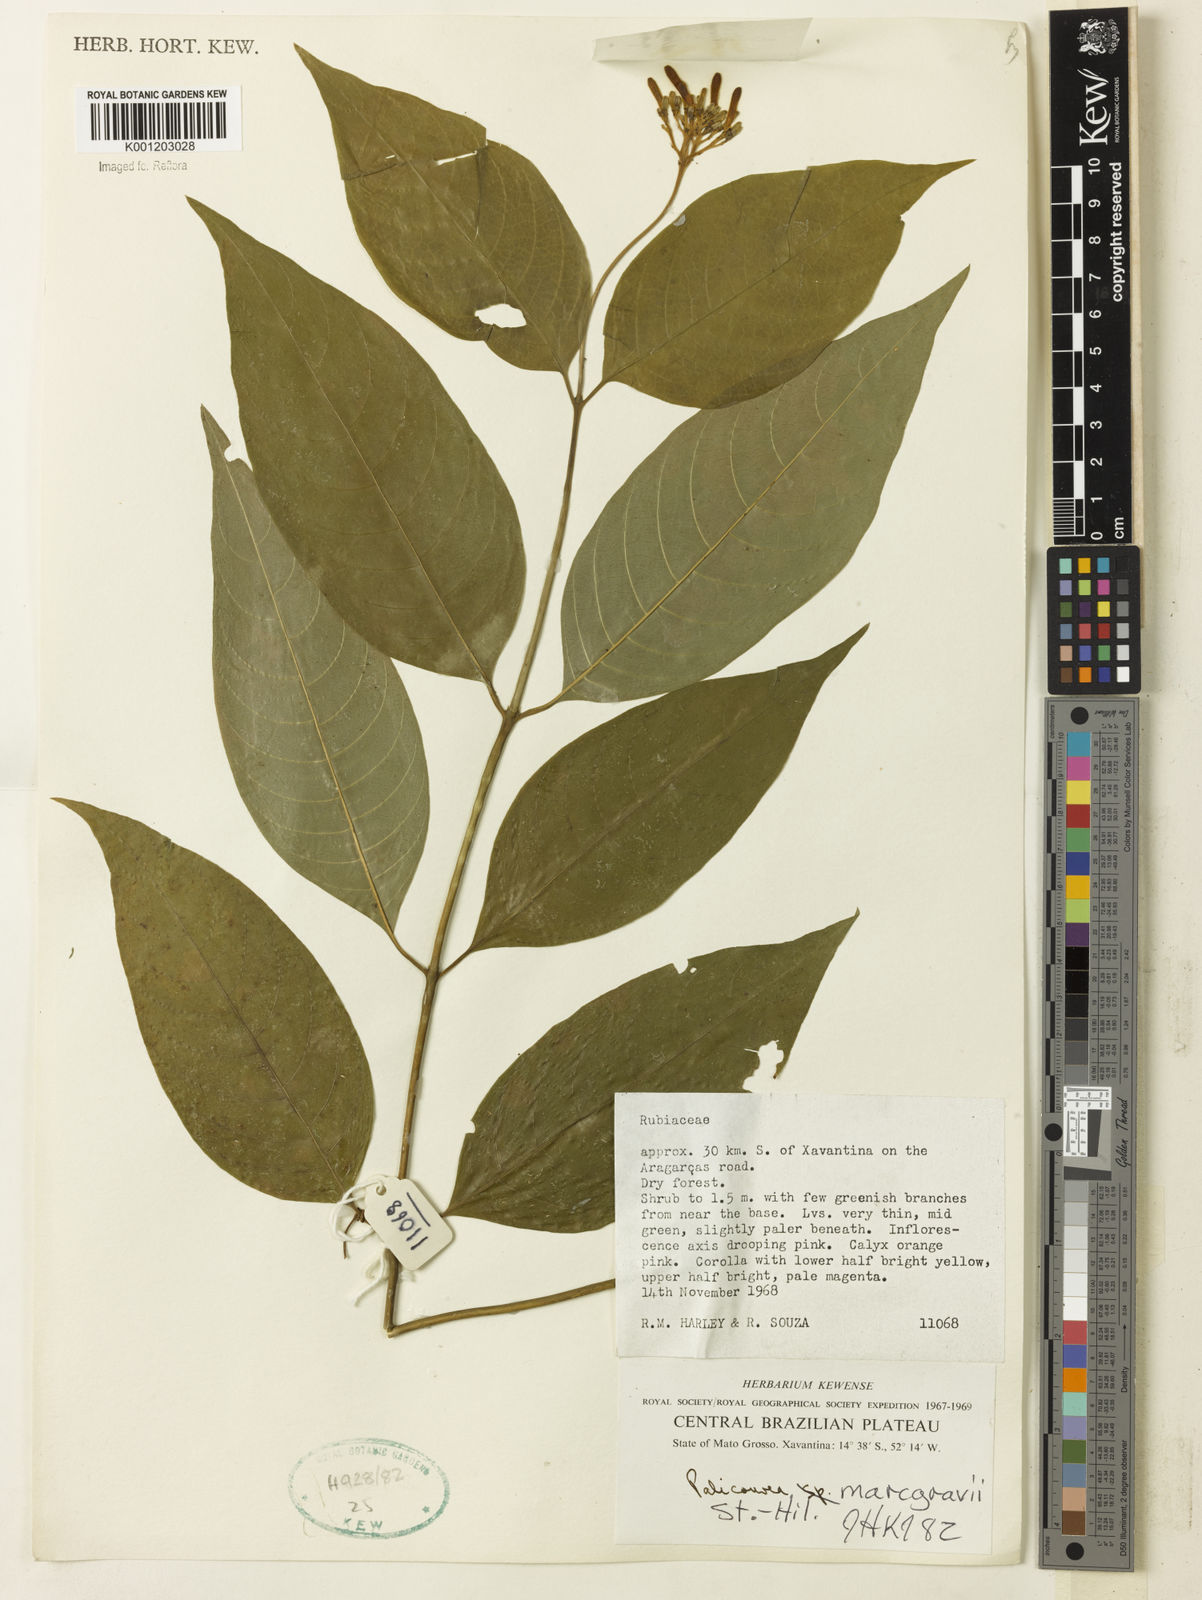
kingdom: Plantae
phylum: Tracheophyta
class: Magnoliopsida
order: Gentianales
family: Rubiaceae
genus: Palicourea
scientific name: Palicourea marcgravii
